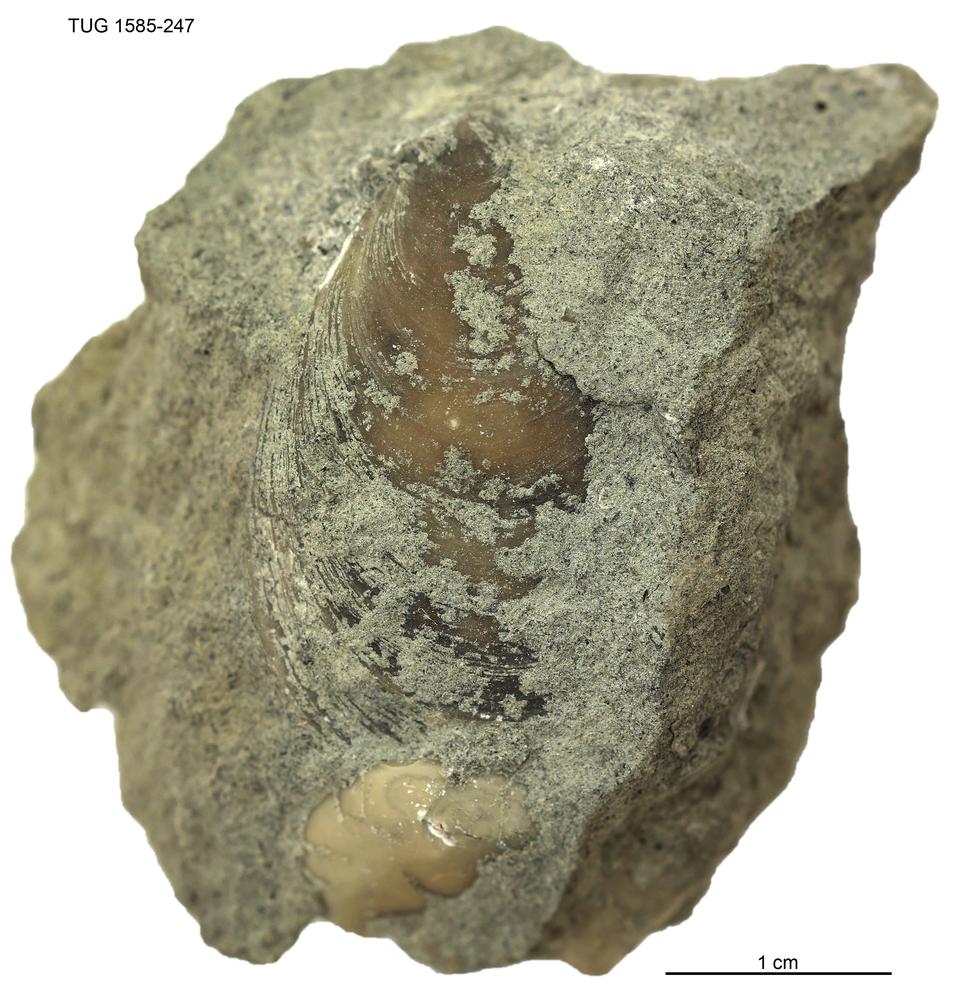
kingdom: Animalia
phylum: Mollusca
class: Monoplacophora
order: Tryblidiida
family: Tryblidiidae
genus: Pilina
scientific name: Pilina
